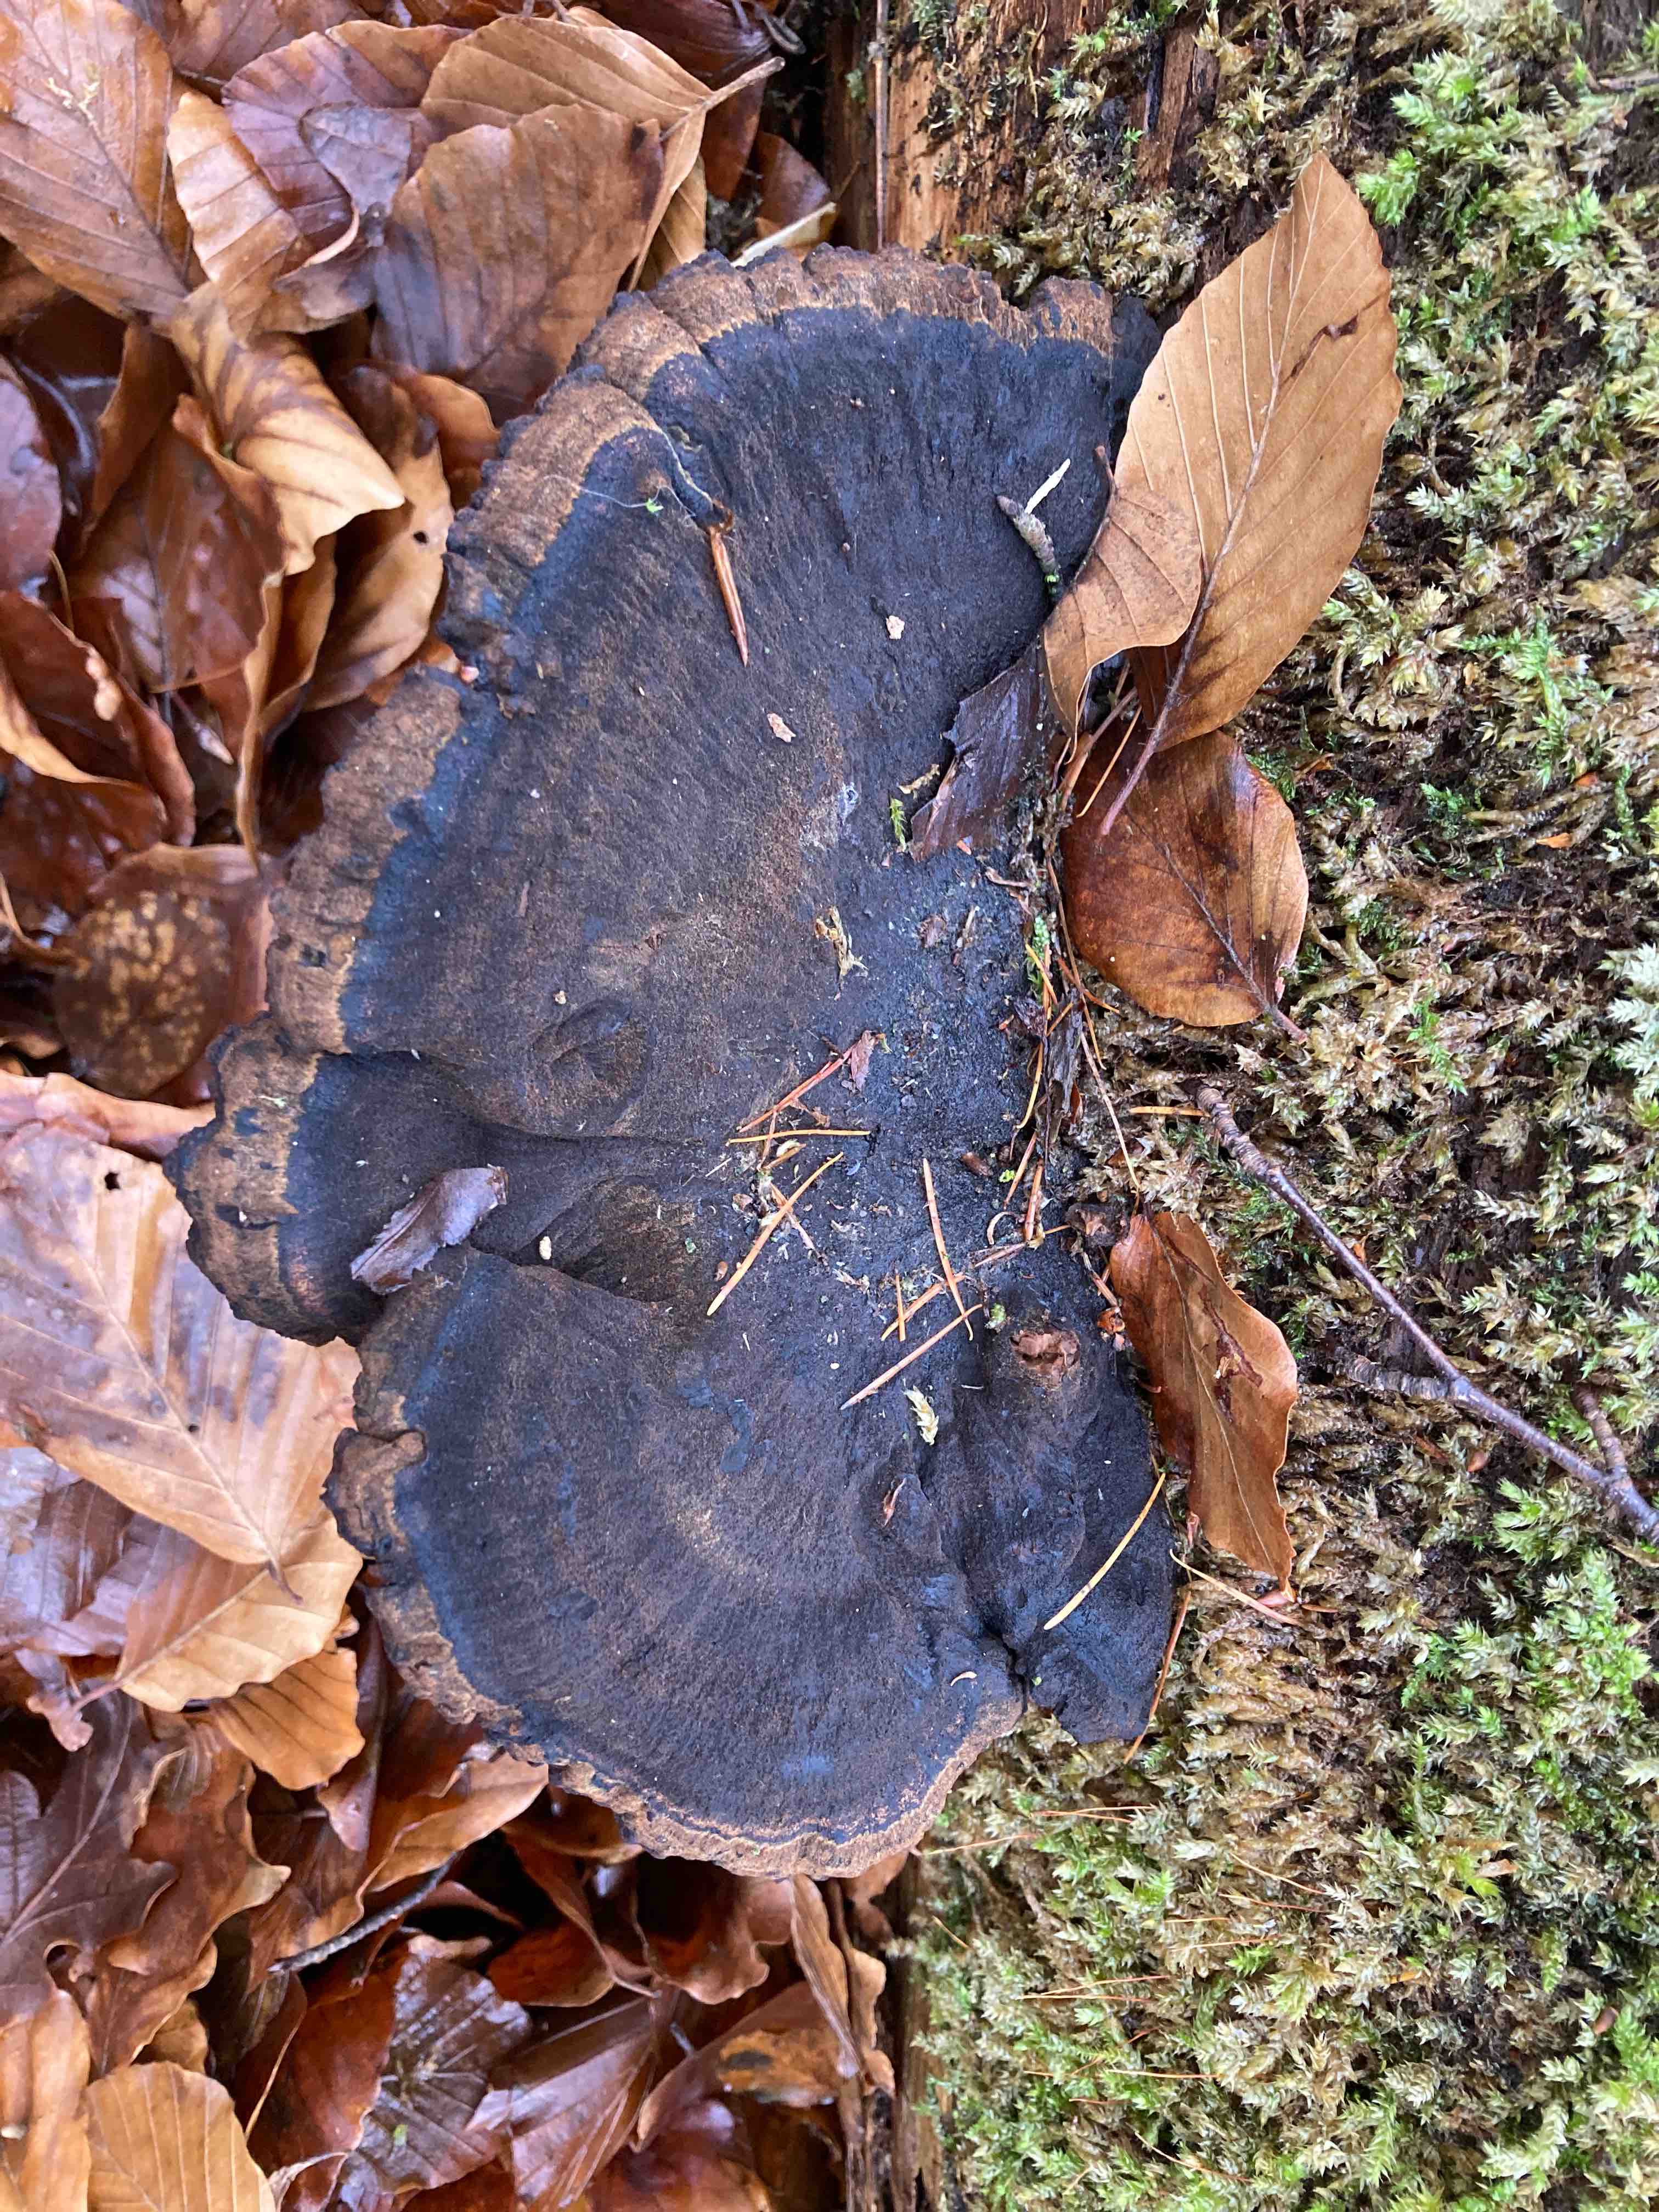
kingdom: Fungi
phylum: Basidiomycota
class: Agaricomycetes
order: Polyporales
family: Ischnodermataceae
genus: Ischnoderma
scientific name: Ischnoderma benzoinum
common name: gran-tjæreporesvamp
